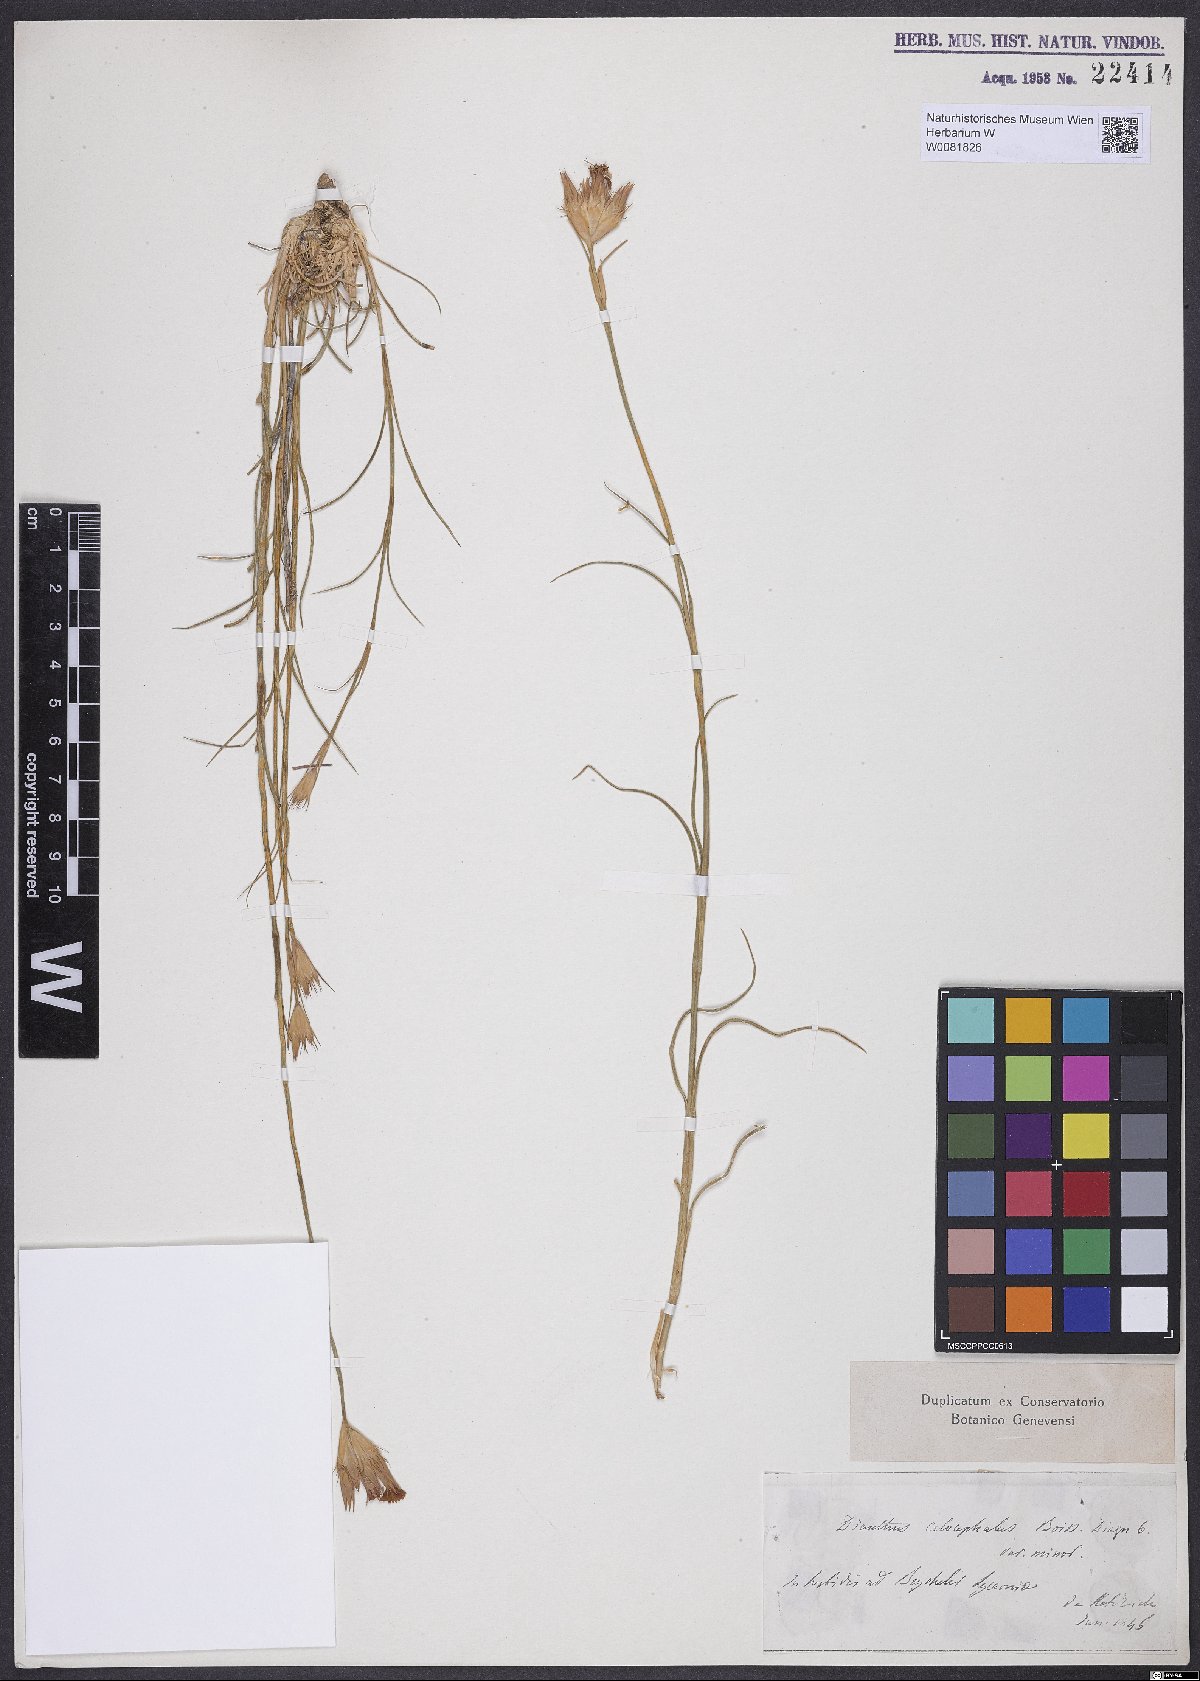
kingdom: Plantae
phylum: Tracheophyta
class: Magnoliopsida
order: Caryophyllales
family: Caryophyllaceae
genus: Dianthus
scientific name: Dianthus cruentus
